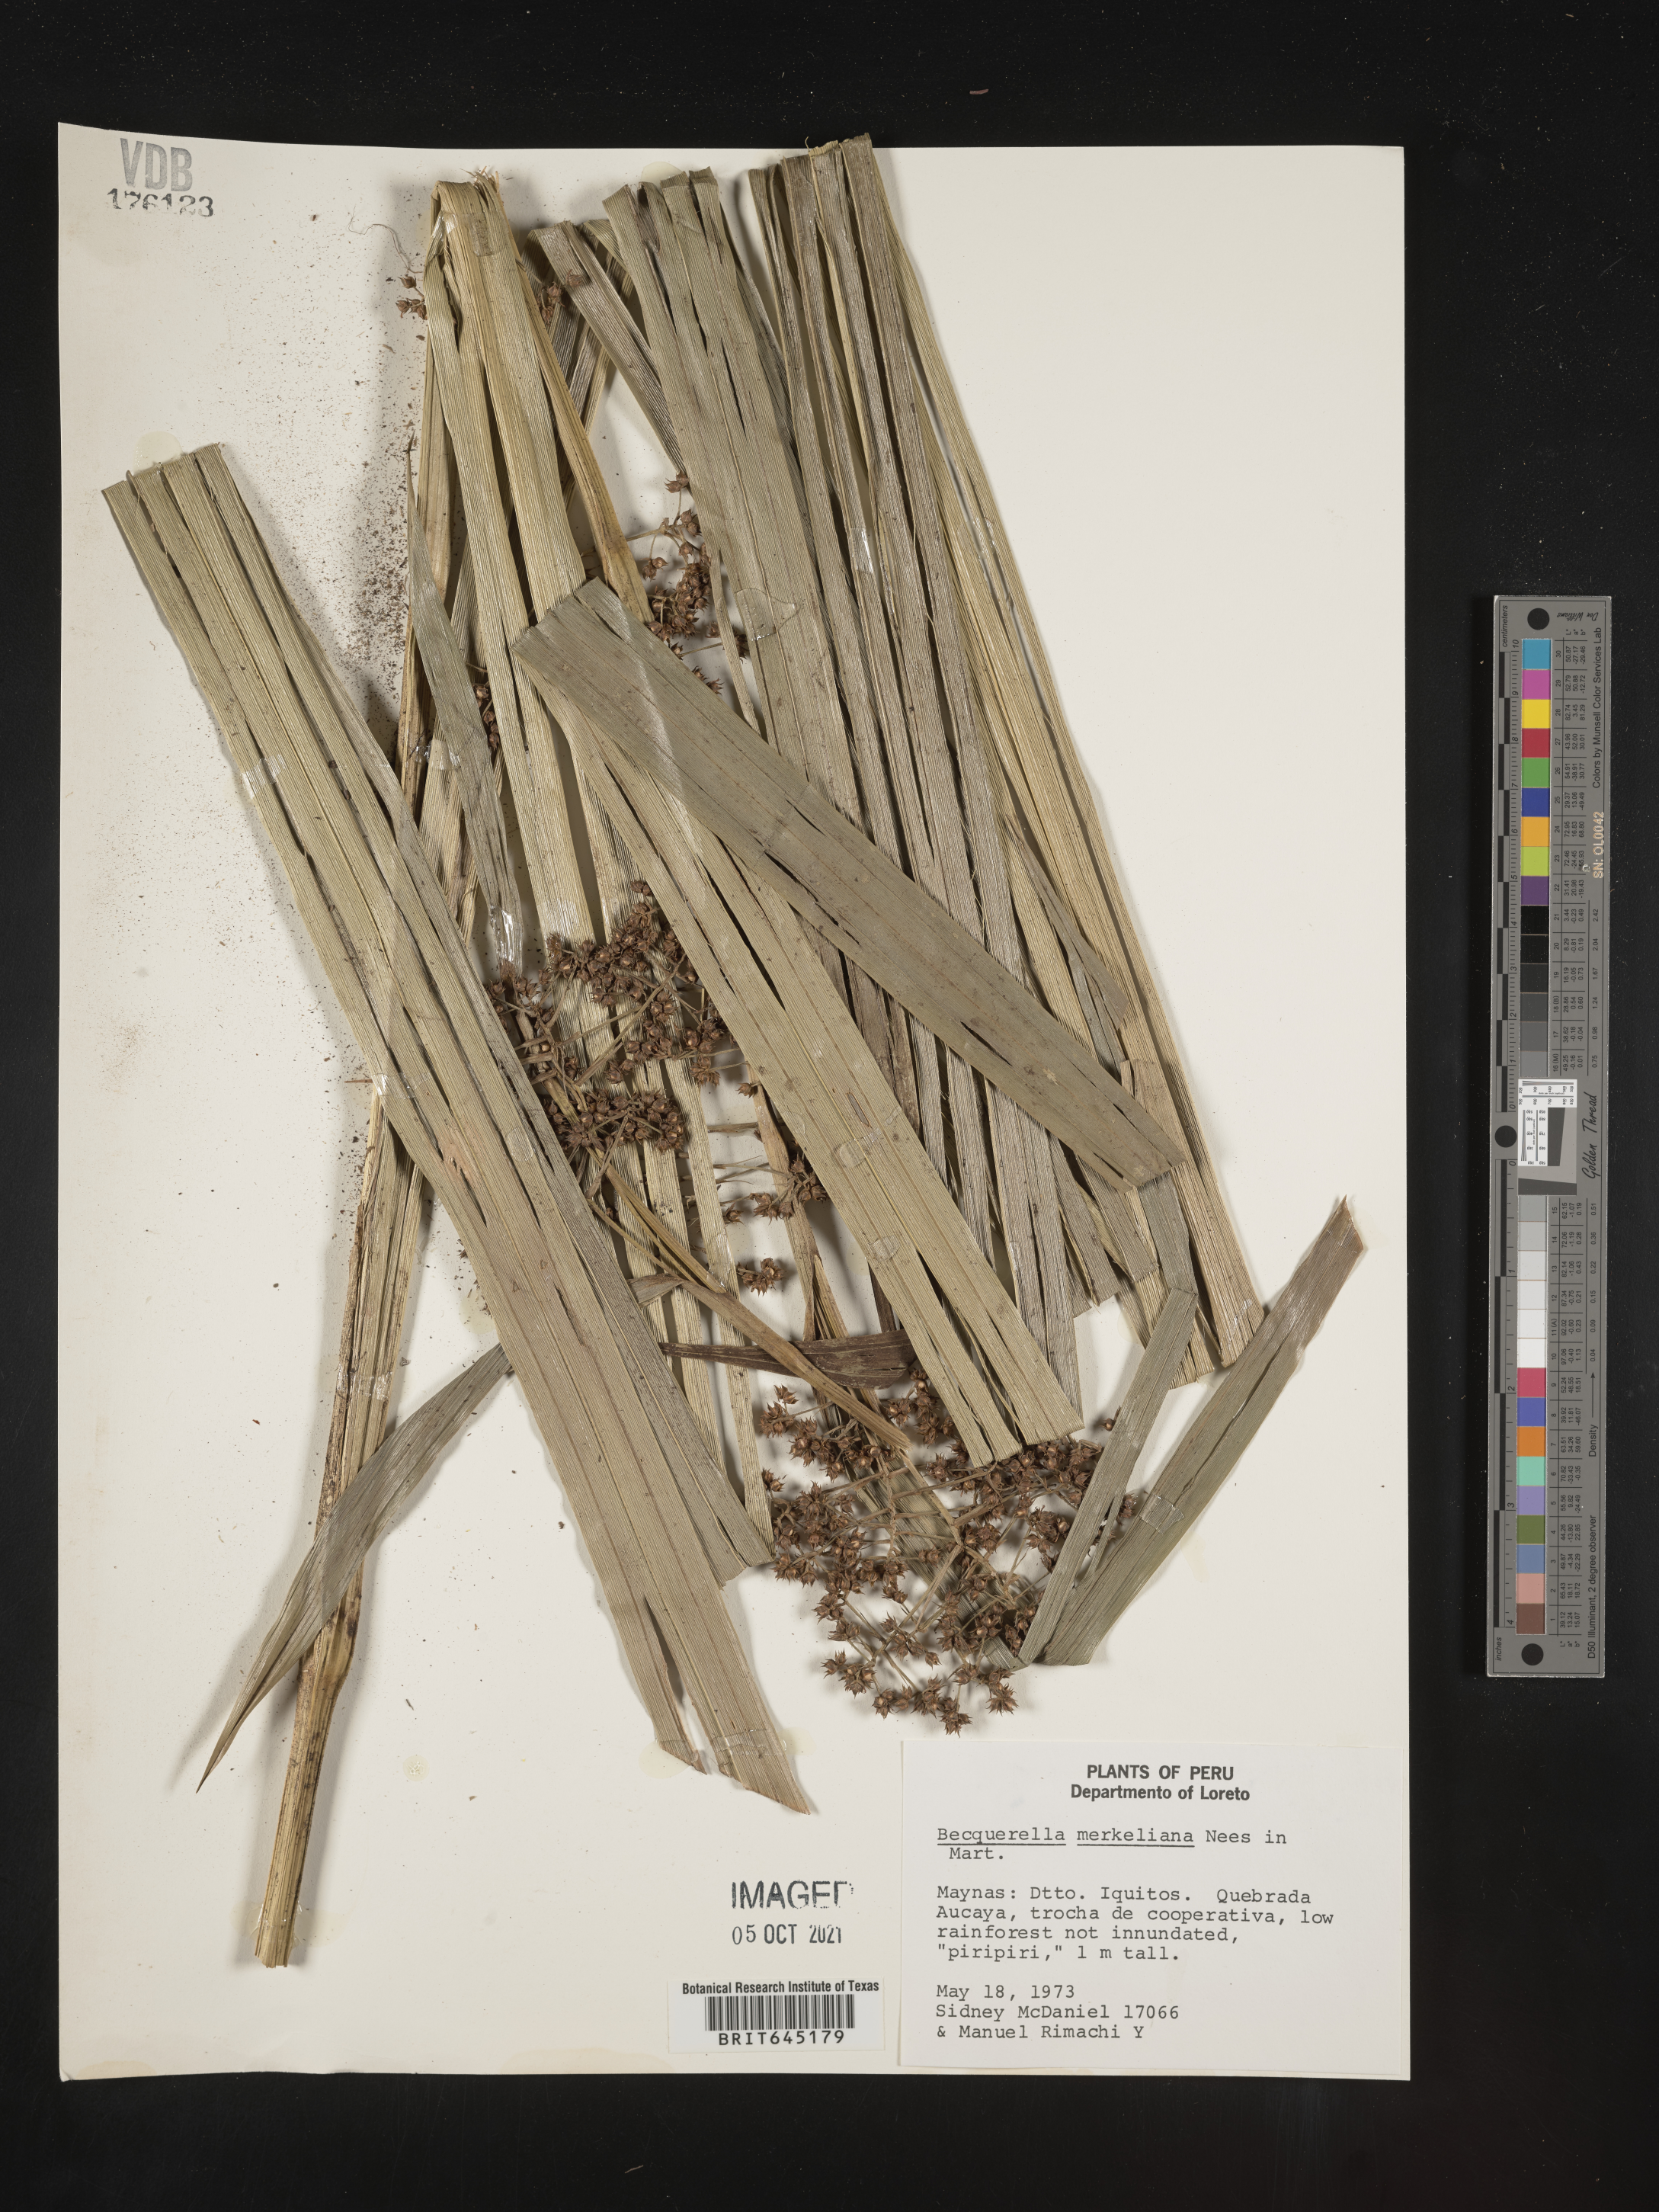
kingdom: Plantae
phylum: Tracheophyta
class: Liliopsida
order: Poales
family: Cyperaceae
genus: Becquerelia
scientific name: Becquerelia merkeliana
